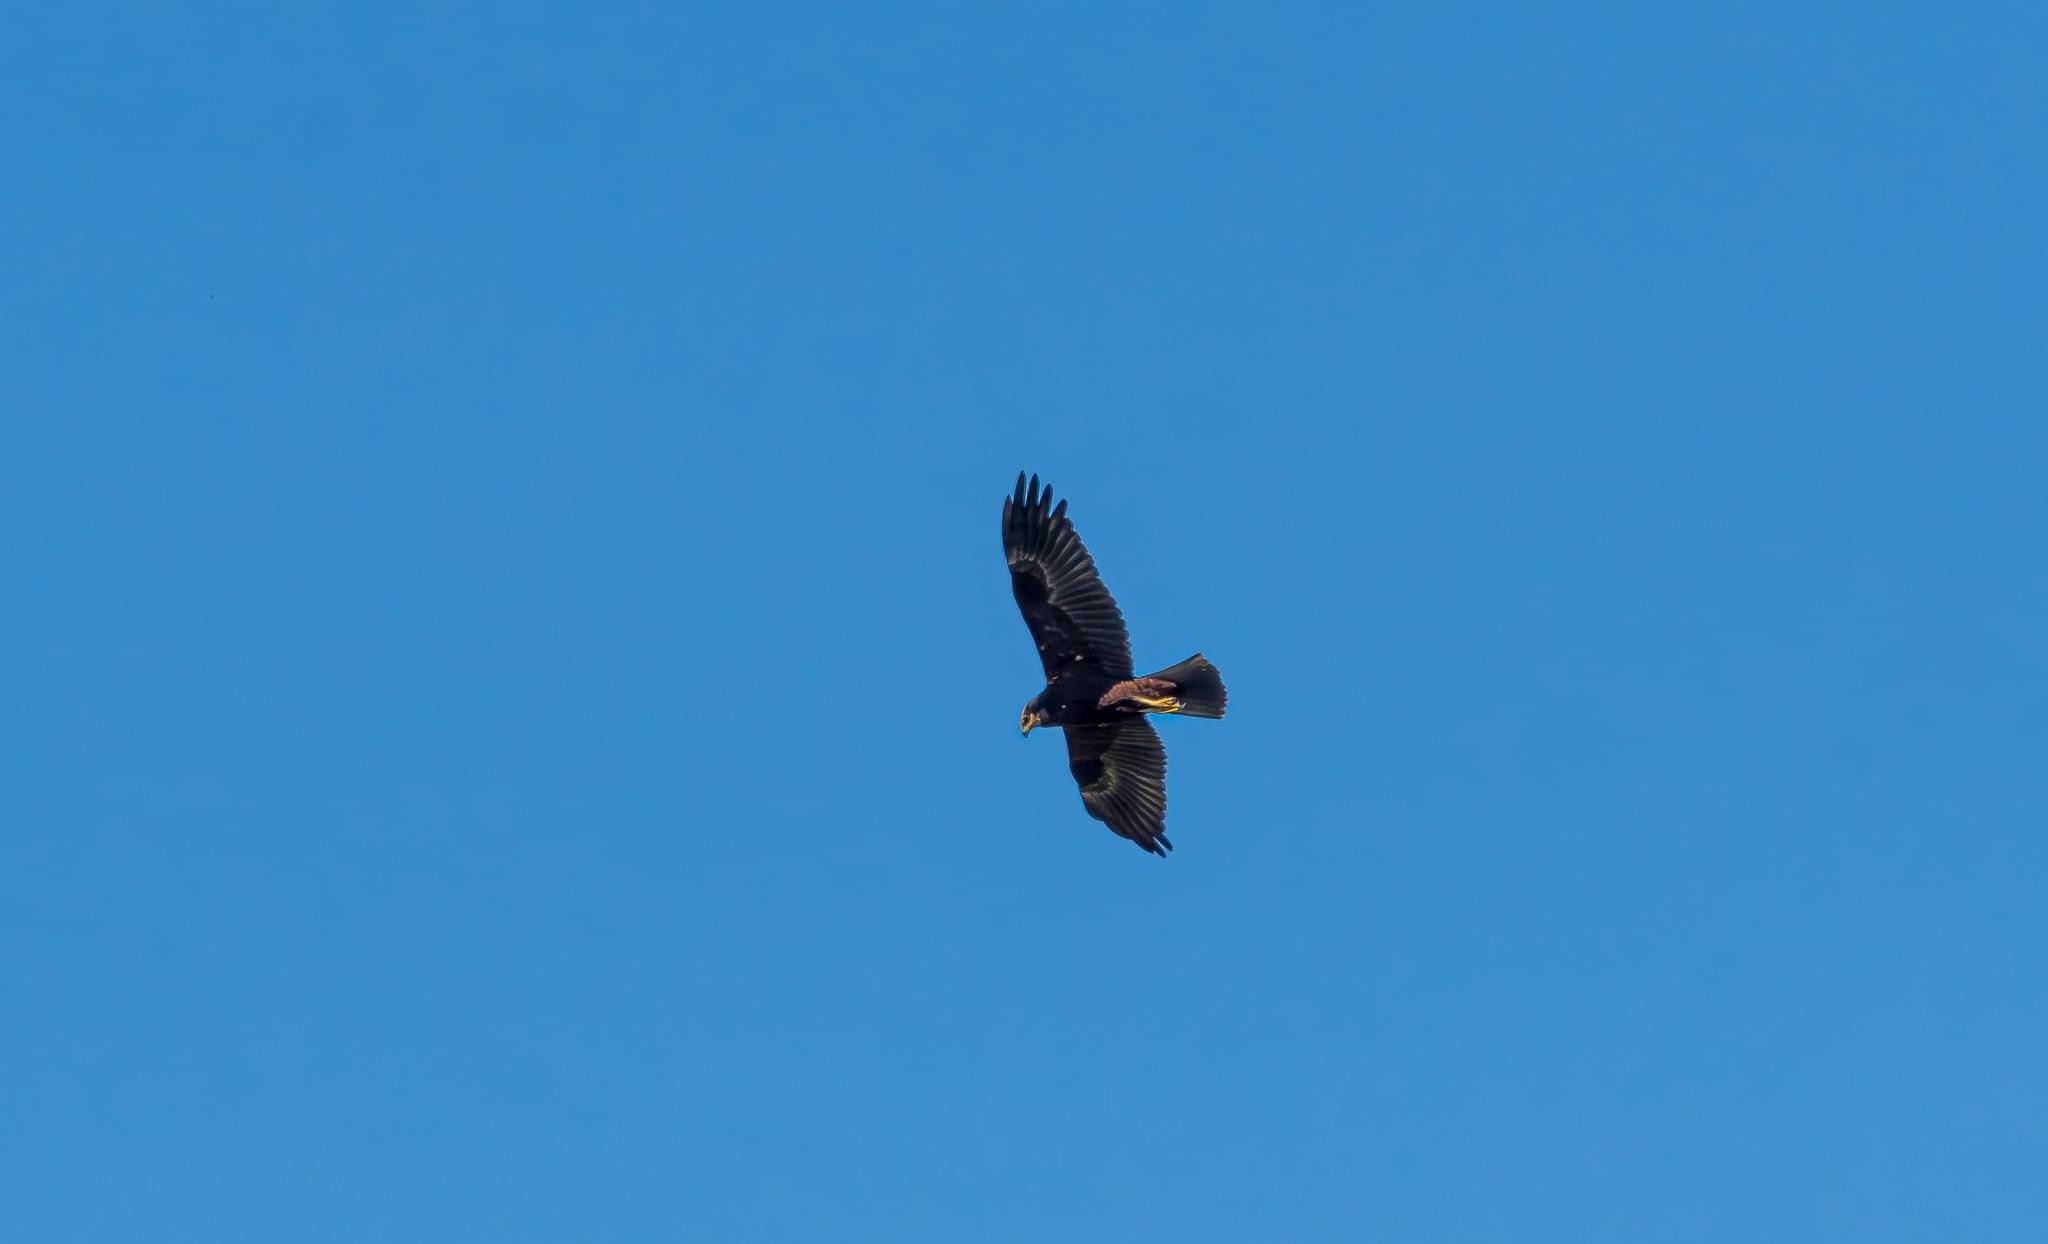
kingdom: Animalia
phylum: Chordata
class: Aves
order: Accipitriformes
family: Accipitridae
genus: Circus
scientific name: Circus aeruginosus
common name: Rørhøg
